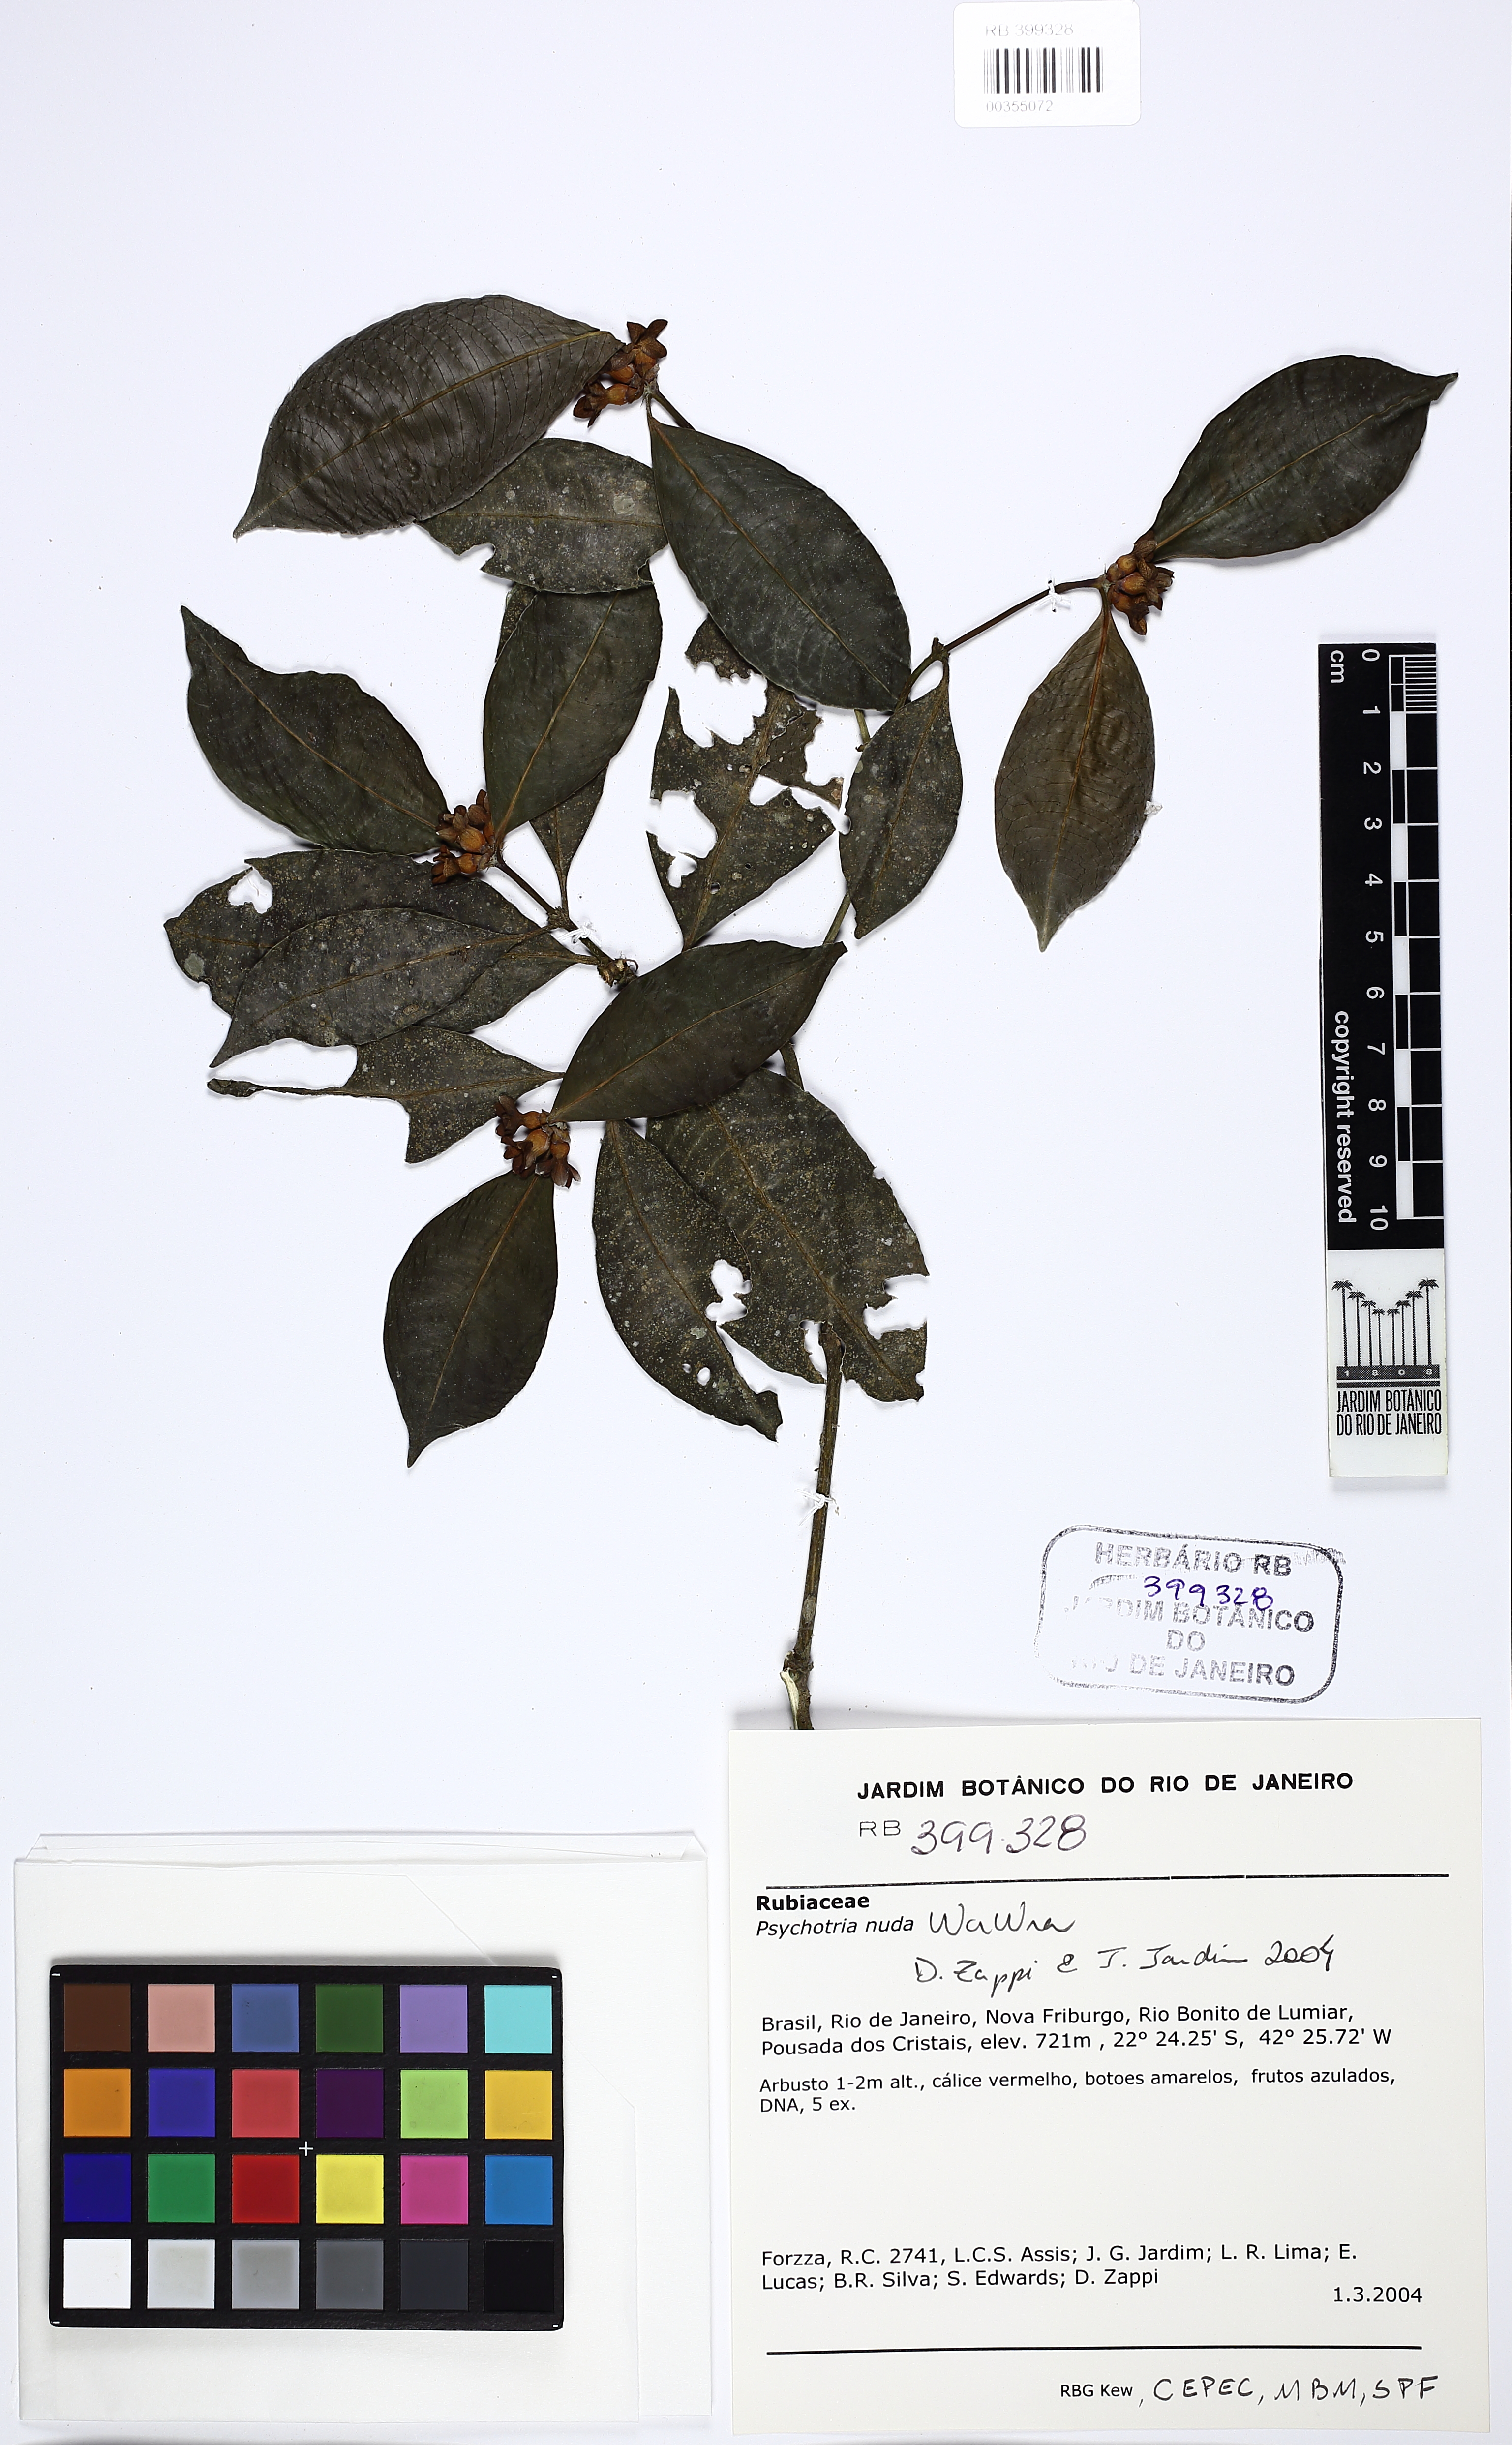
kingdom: Plantae
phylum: Tracheophyta
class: Magnoliopsida
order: Gentianales
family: Rubiaceae
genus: Psychotria
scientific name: Psychotria nuda
